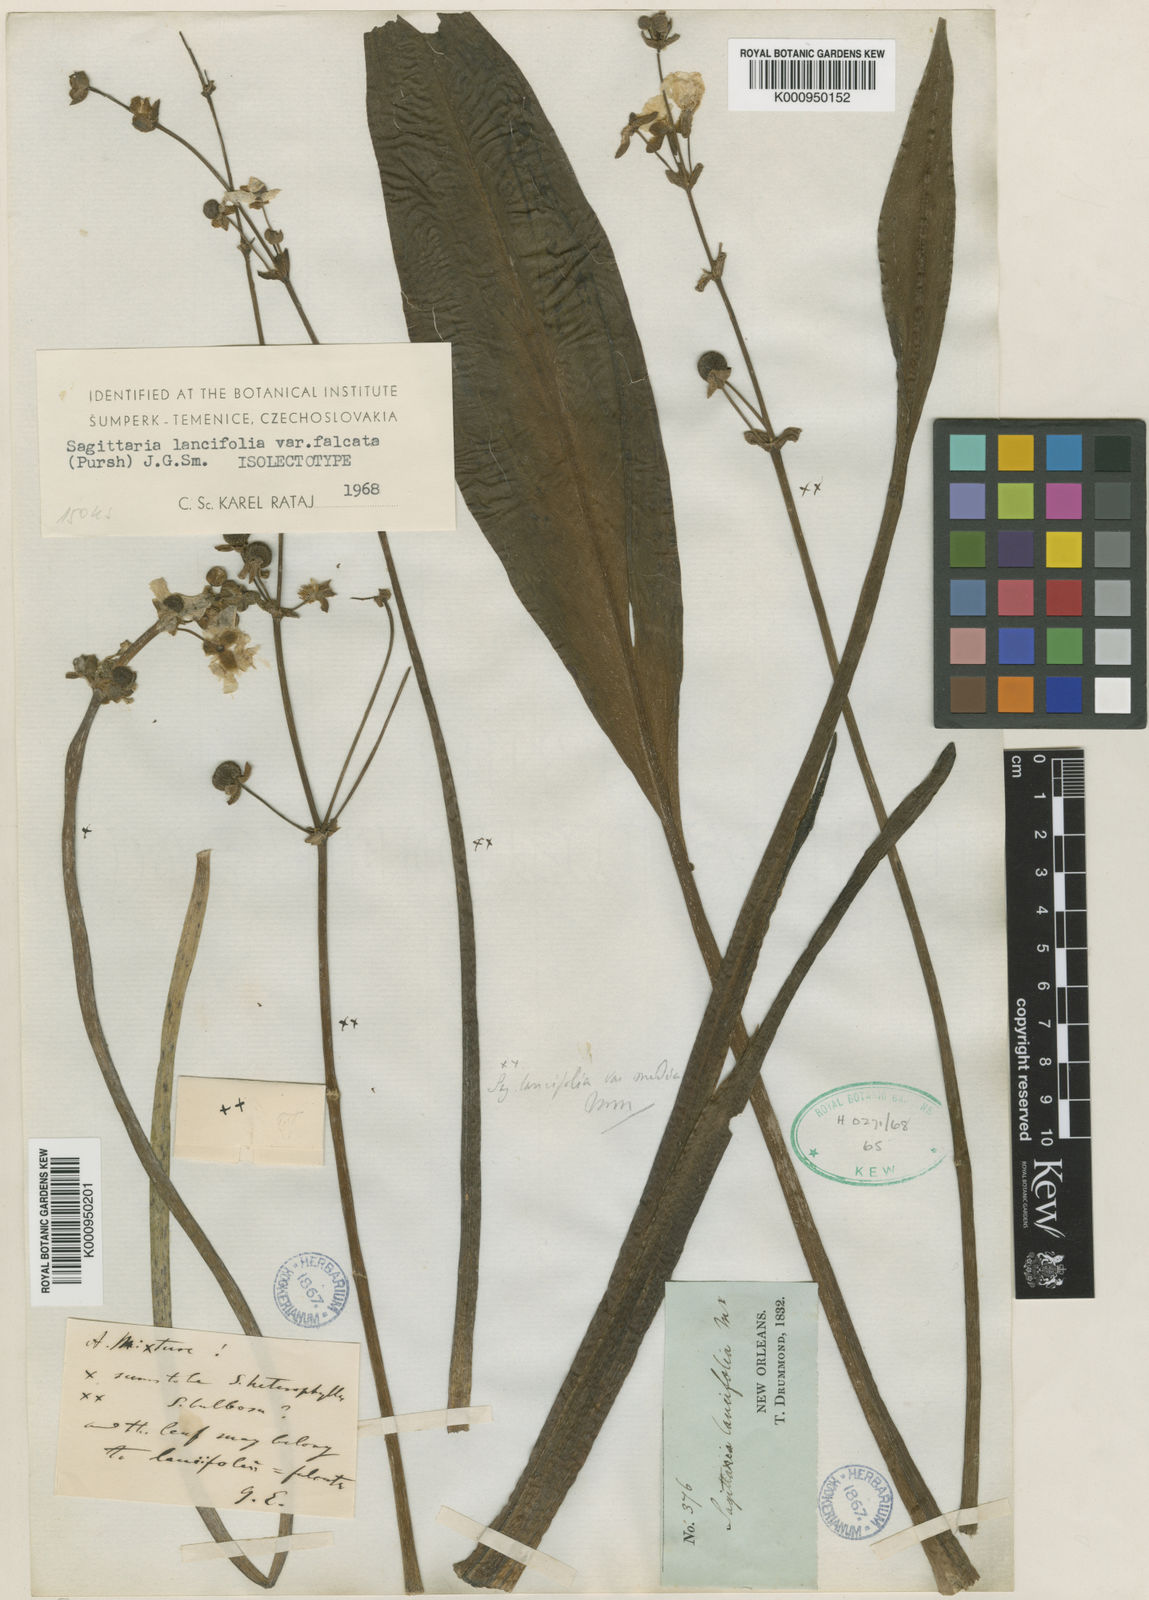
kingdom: Plantae
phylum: Tracheophyta
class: Liliopsida
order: Alismatales
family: Alismataceae
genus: Sagittaria
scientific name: Sagittaria lancifolia
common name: Lance-leaf arrowhead
